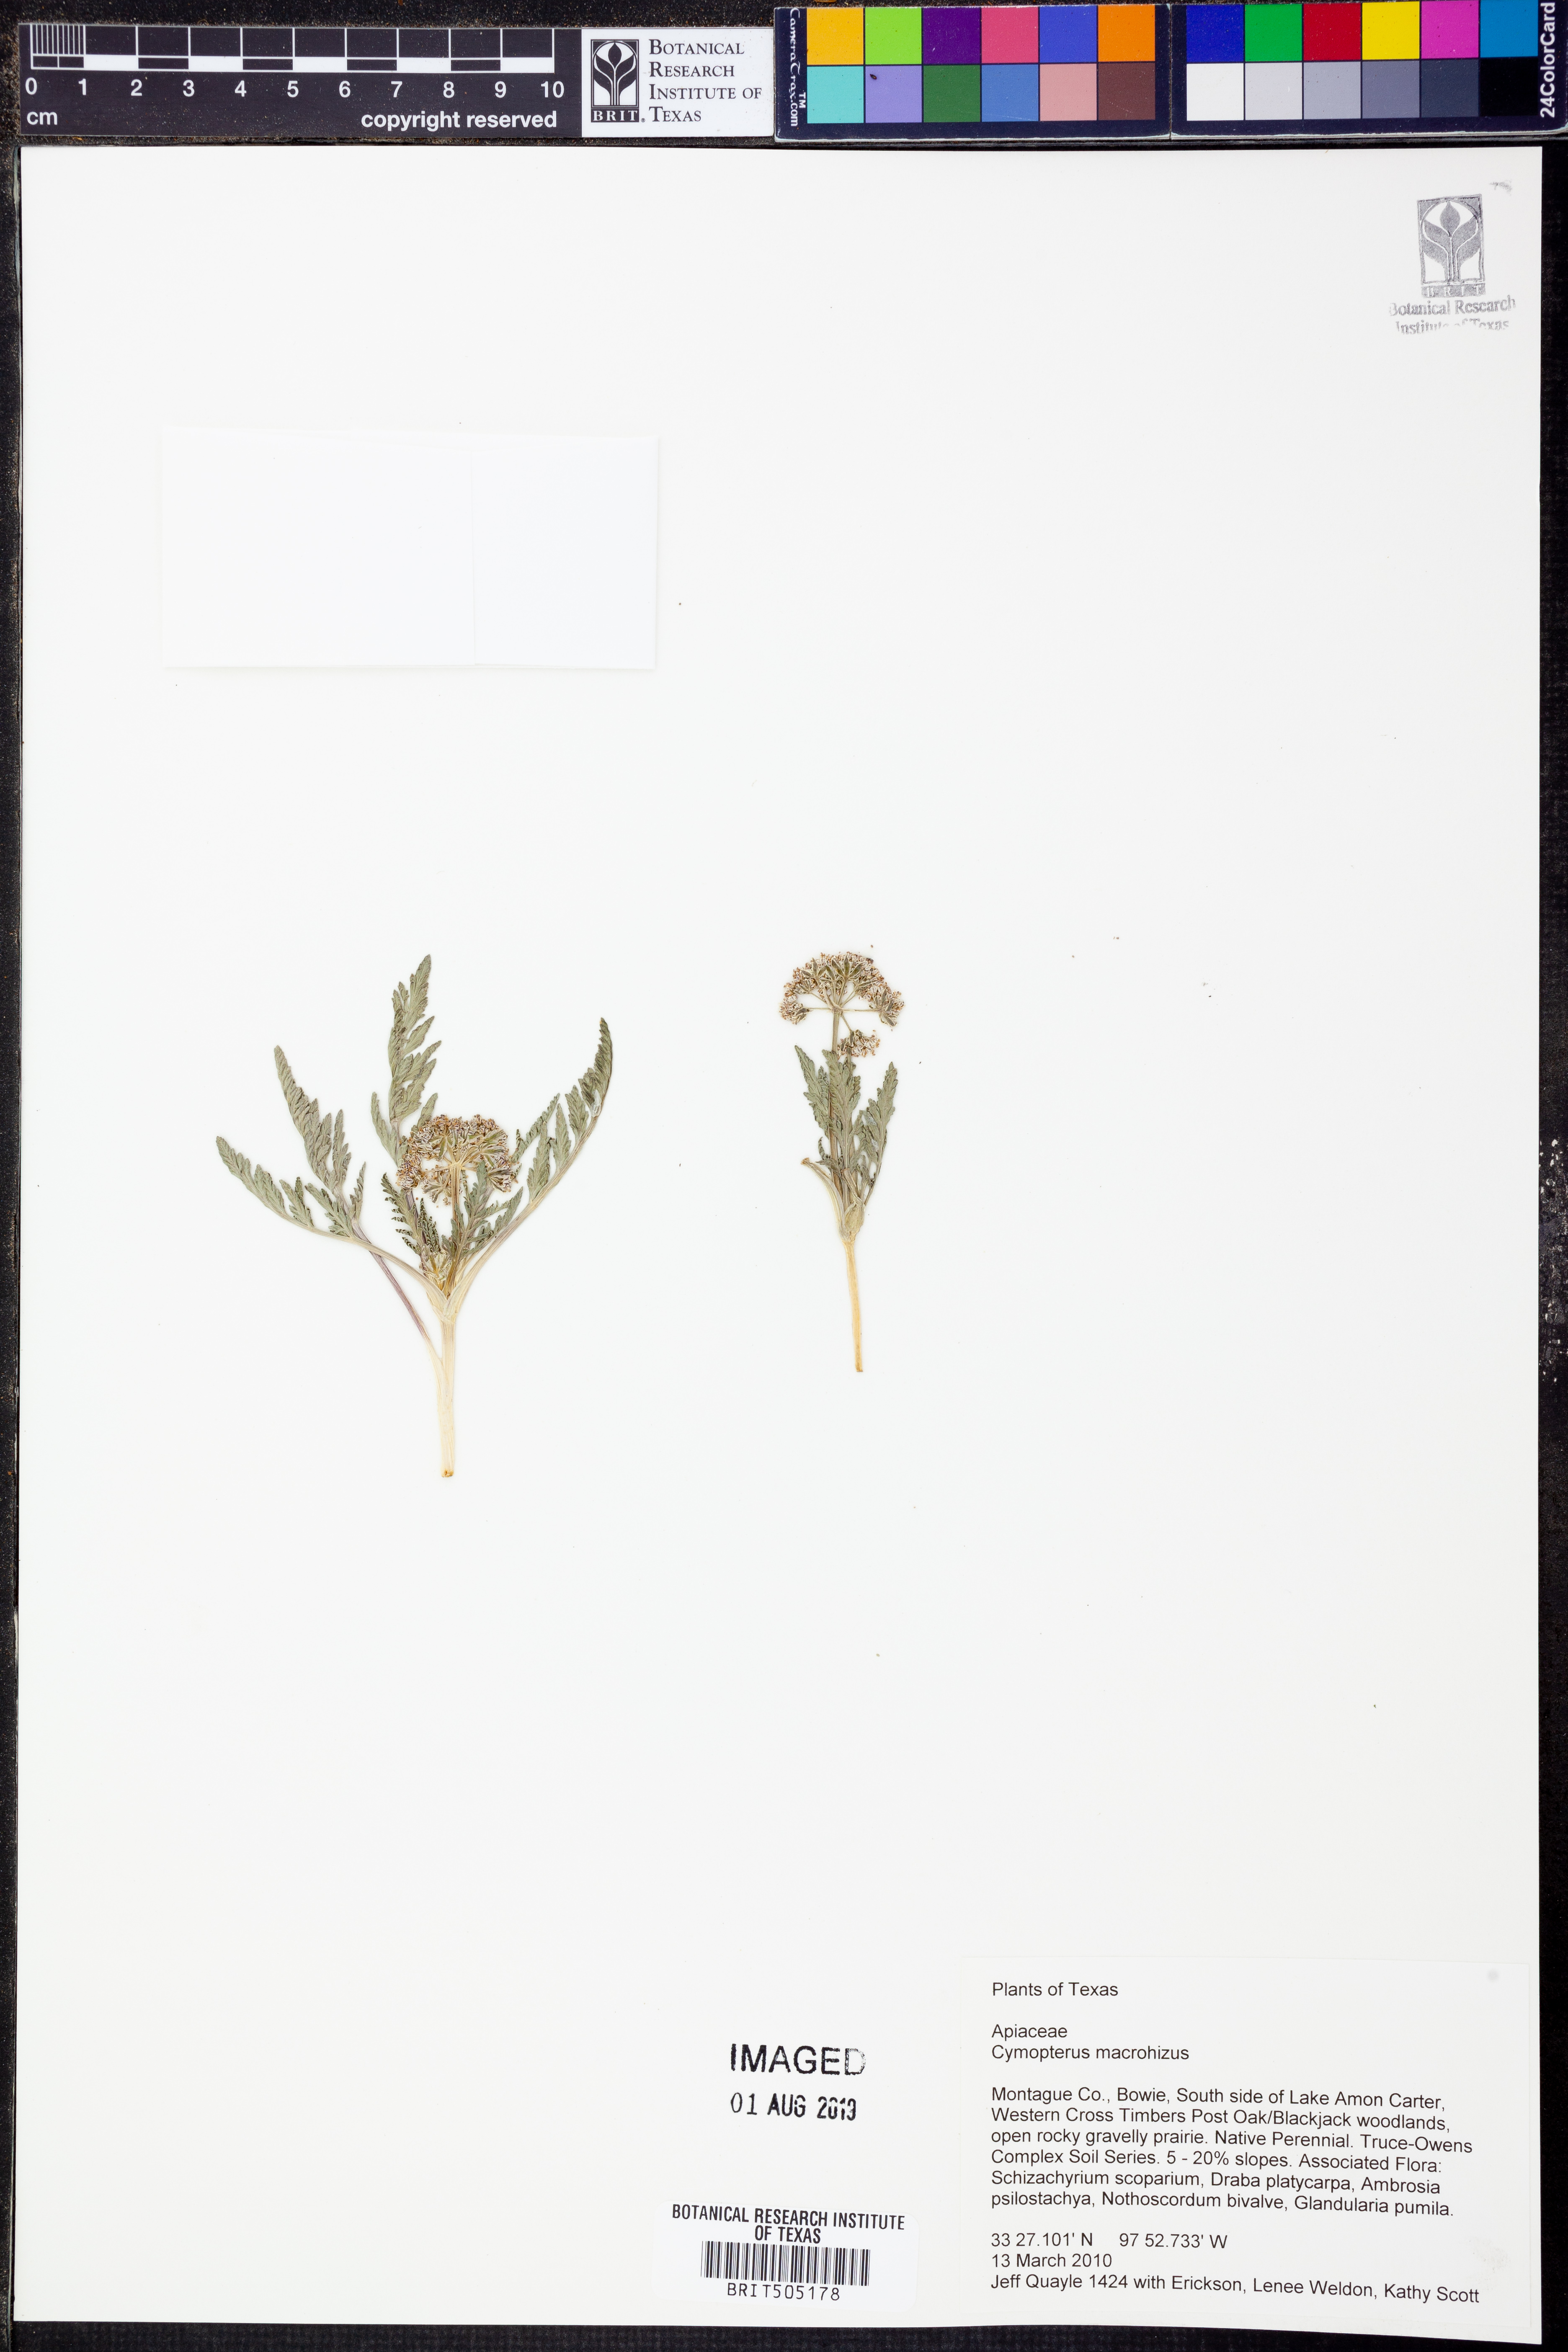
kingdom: Plantae
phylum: Tracheophyta
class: Magnoliopsida
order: Apiales
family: Apiaceae
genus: Vesper
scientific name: Vesper macrorhizus
